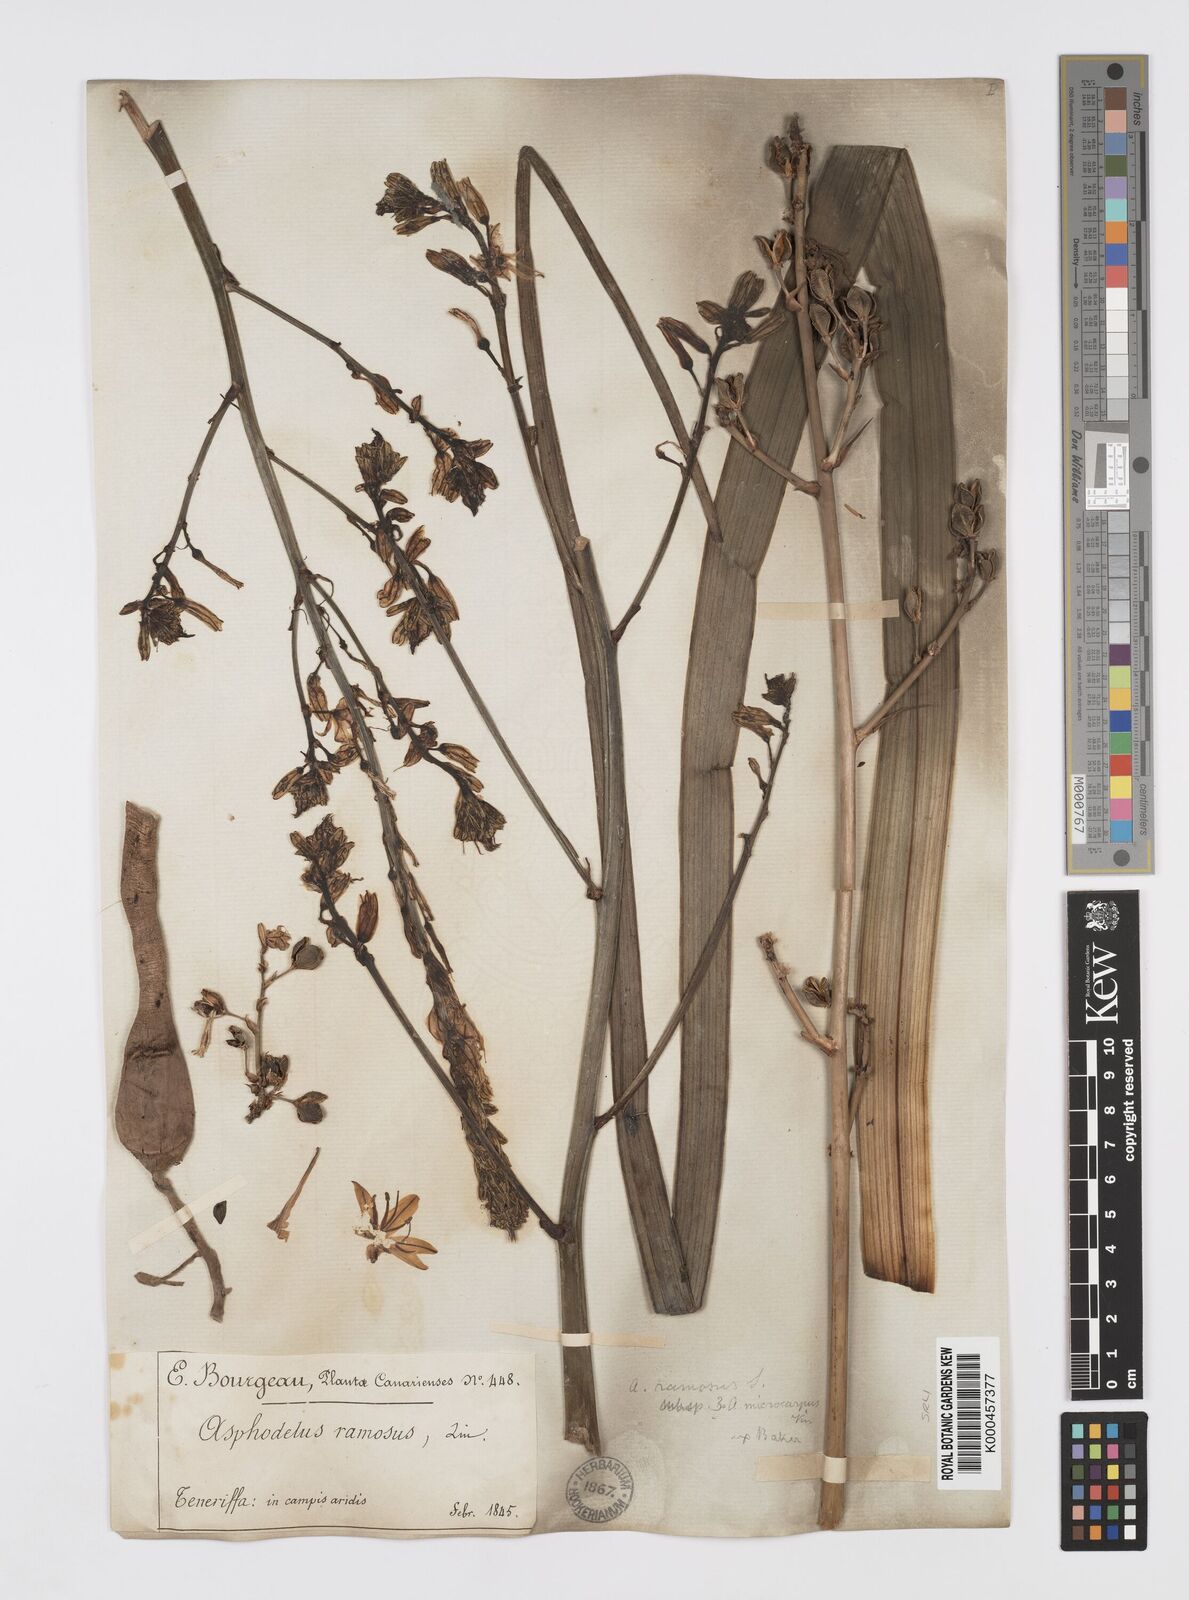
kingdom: Plantae
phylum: Tracheophyta
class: Liliopsida
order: Asparagales
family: Asphodelaceae
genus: Asphodelus
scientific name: Asphodelus aestivus
